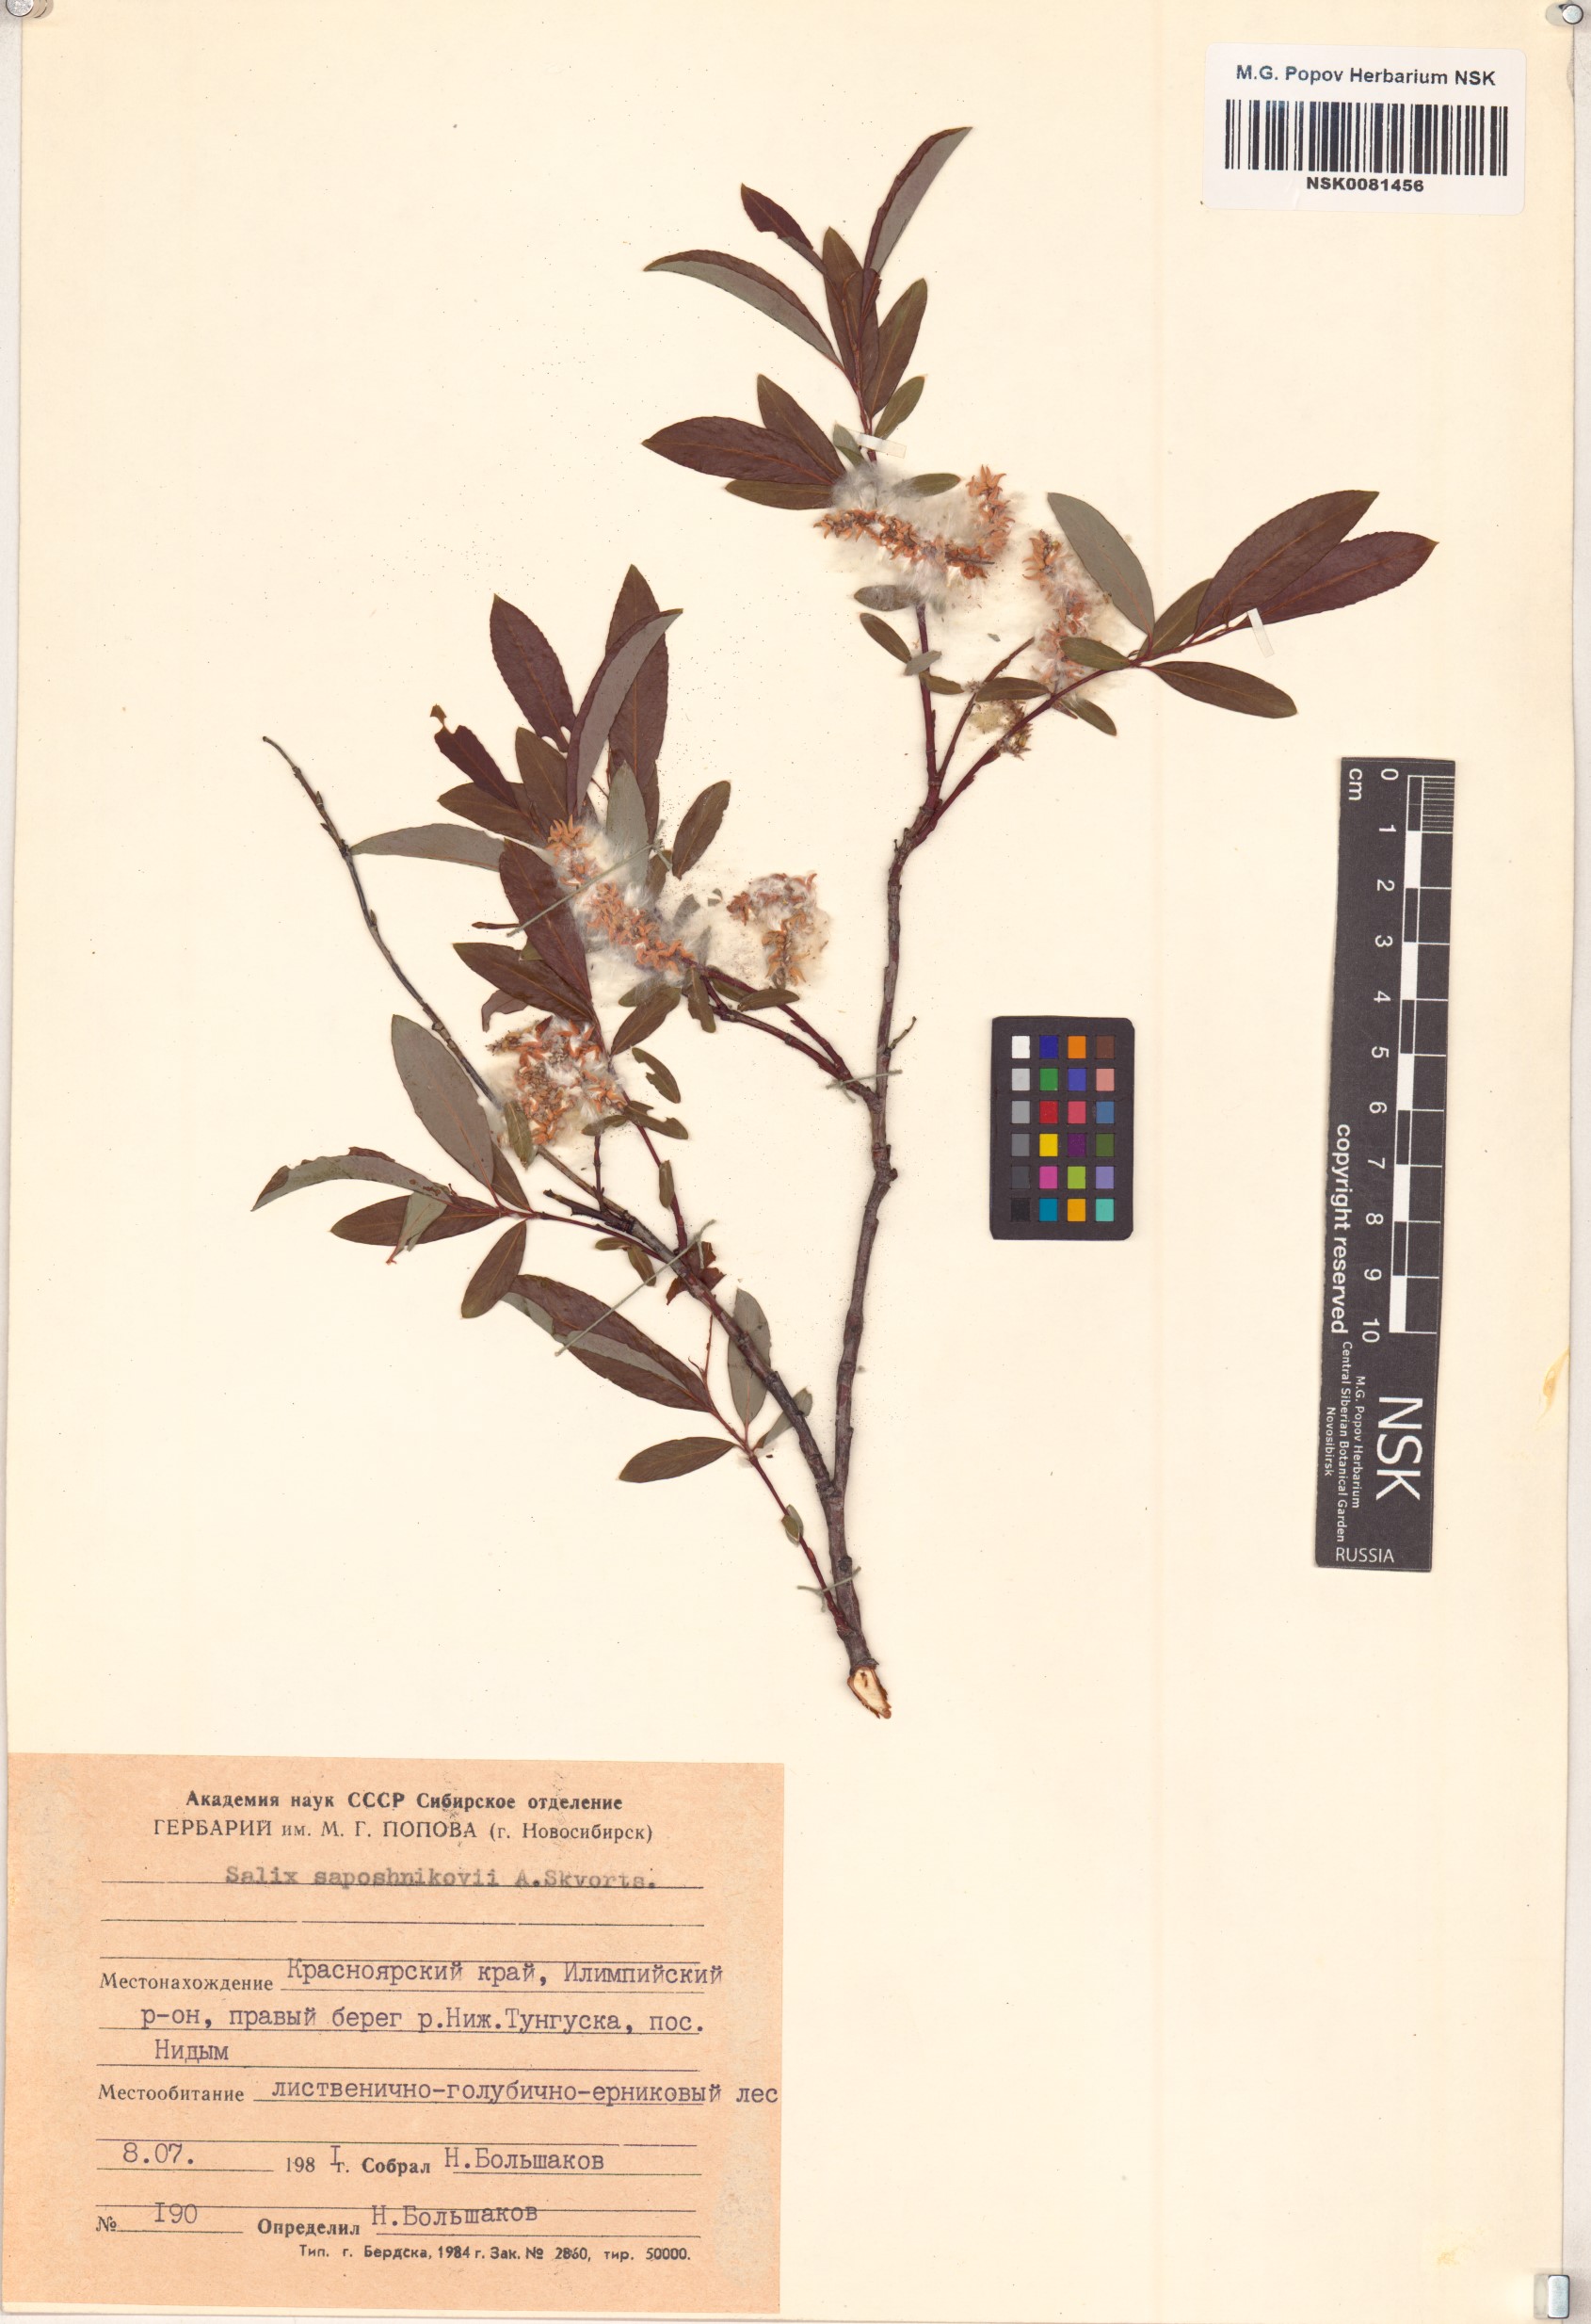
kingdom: Plantae
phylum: Tracheophyta
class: Magnoliopsida
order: Malpighiales
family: Salicaceae
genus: Salix
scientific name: Salix saposhnikovii
